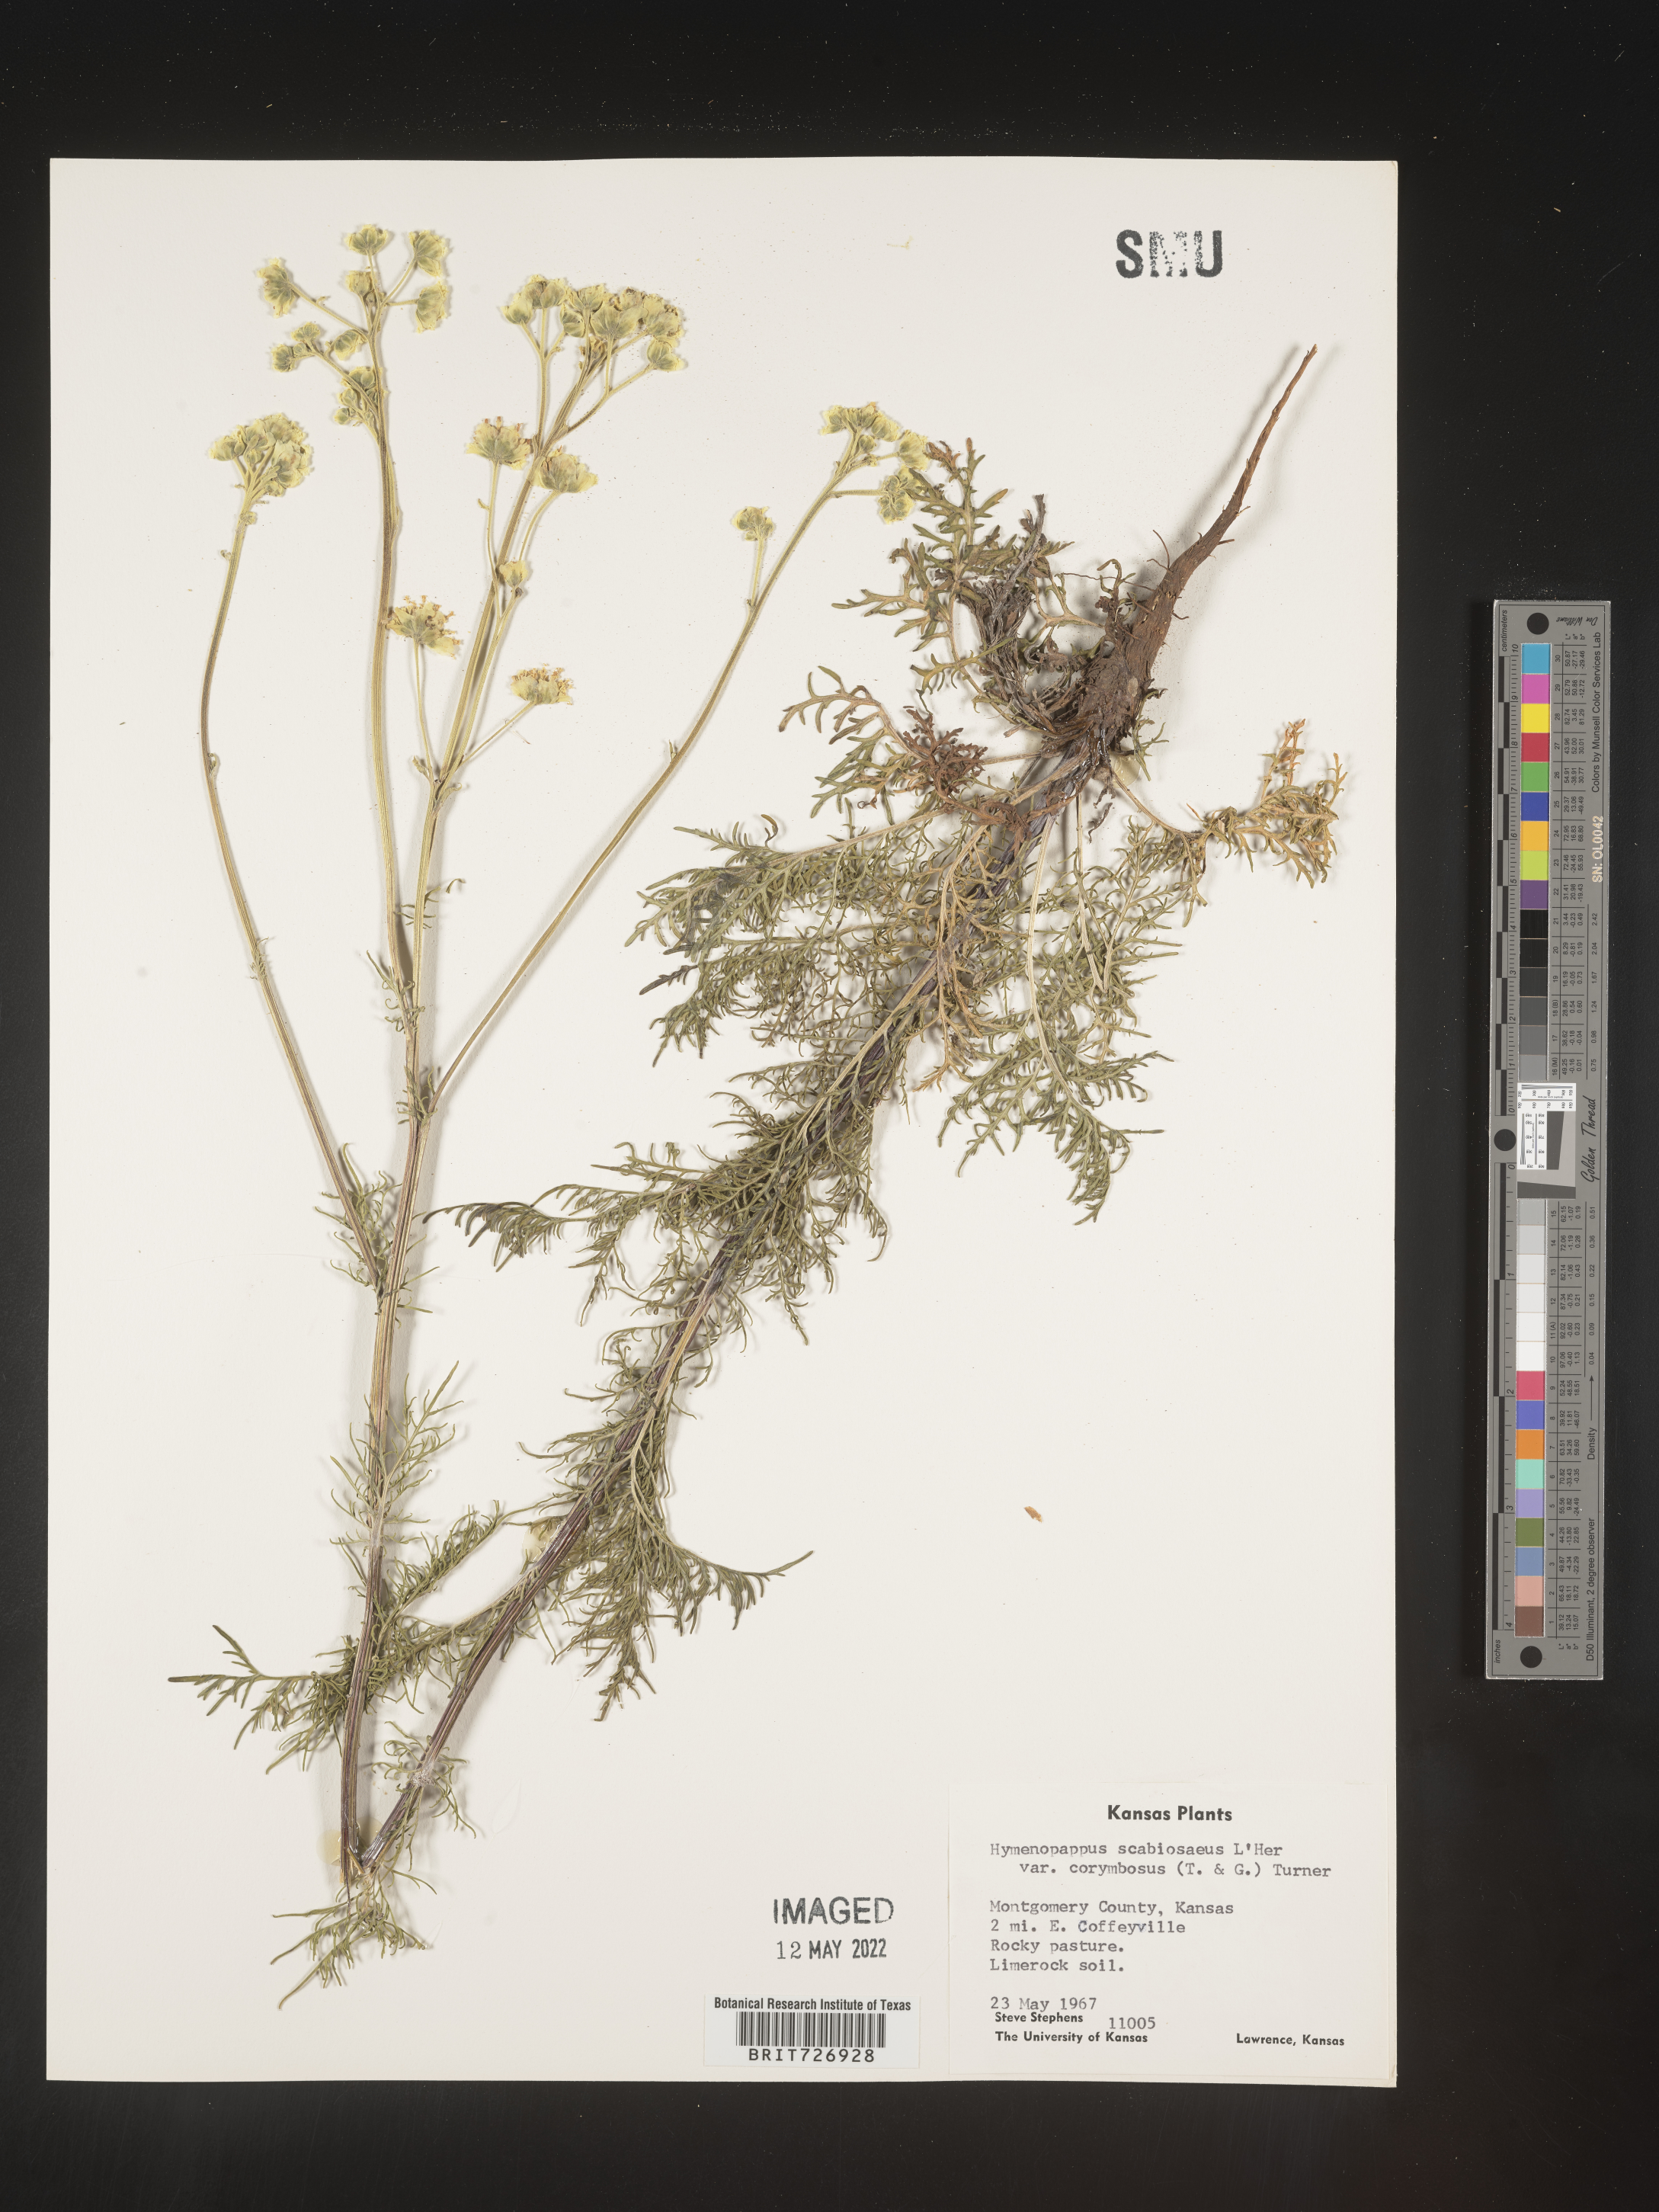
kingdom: Plantae
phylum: Tracheophyta
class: Magnoliopsida
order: Asterales
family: Asteraceae
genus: Hymenopappus
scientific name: Hymenopappus scabiosaeus
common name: Carolina woollywhite
